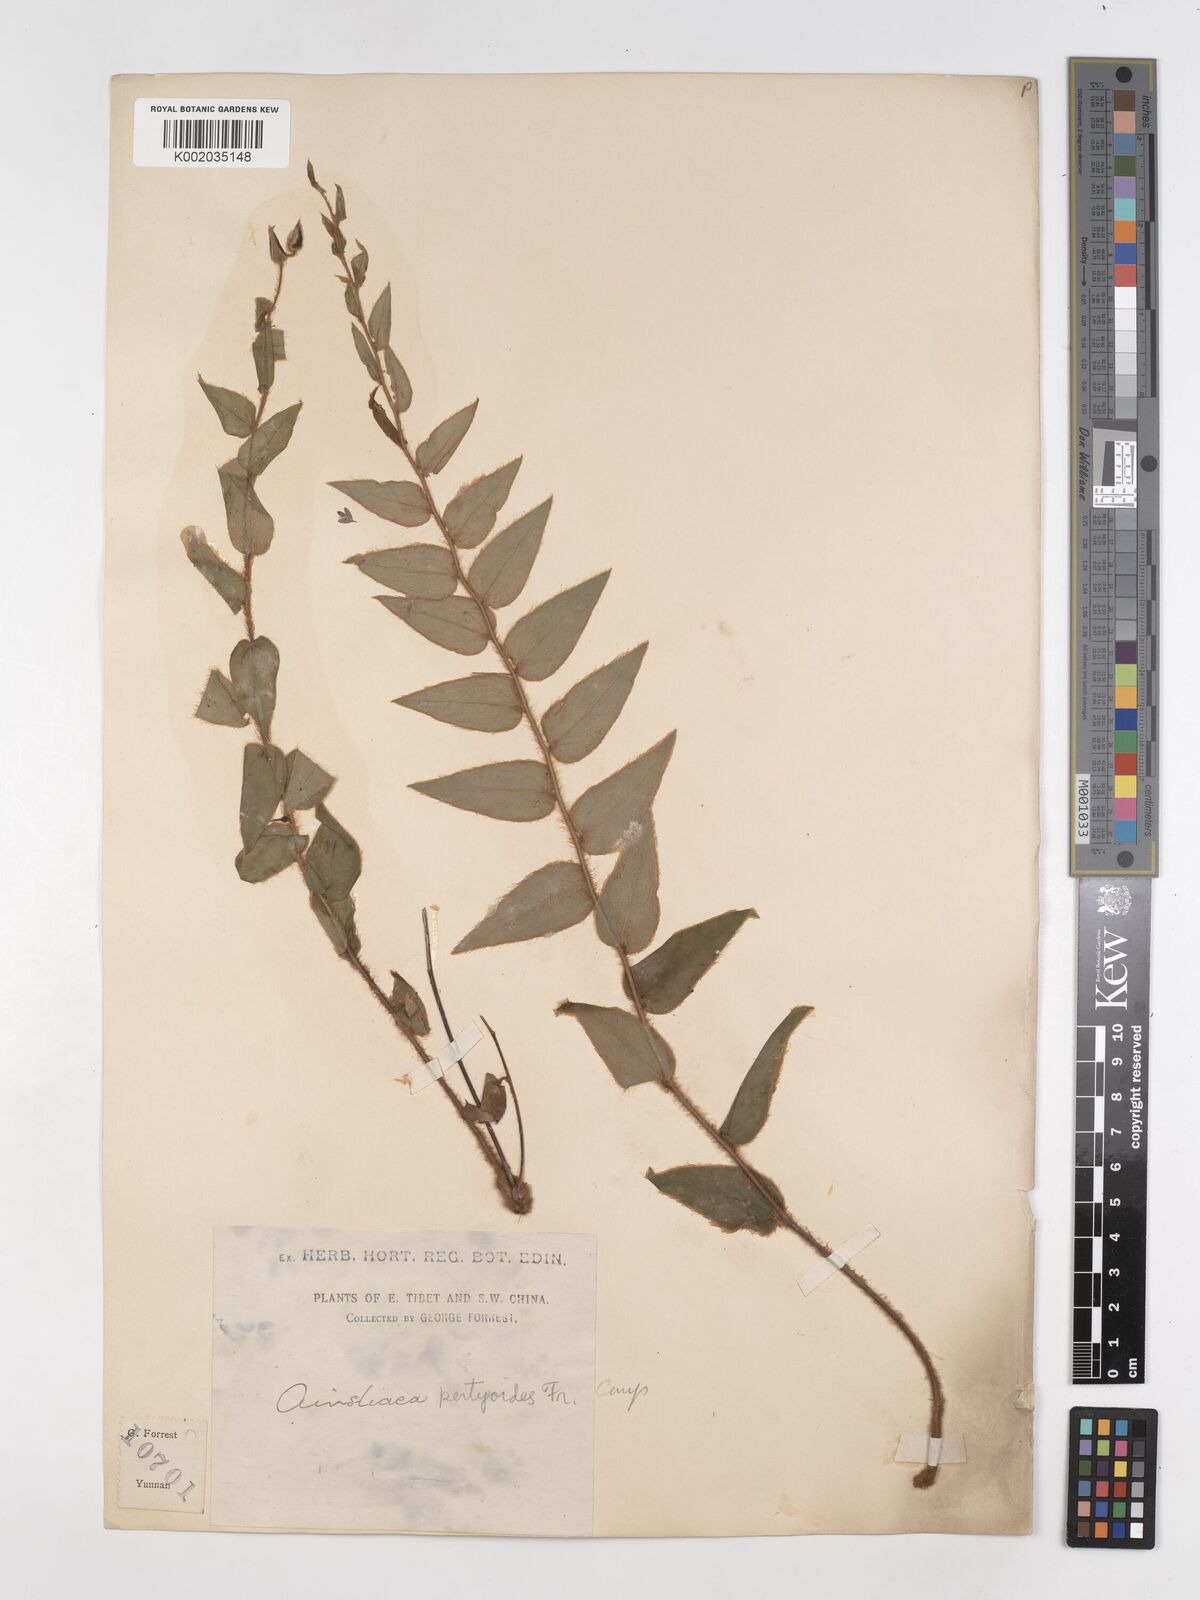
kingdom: Plantae
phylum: Tracheophyta
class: Magnoliopsida
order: Asterales
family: Asteraceae
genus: Ainsliaea
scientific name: Ainsliaea pertyoides
